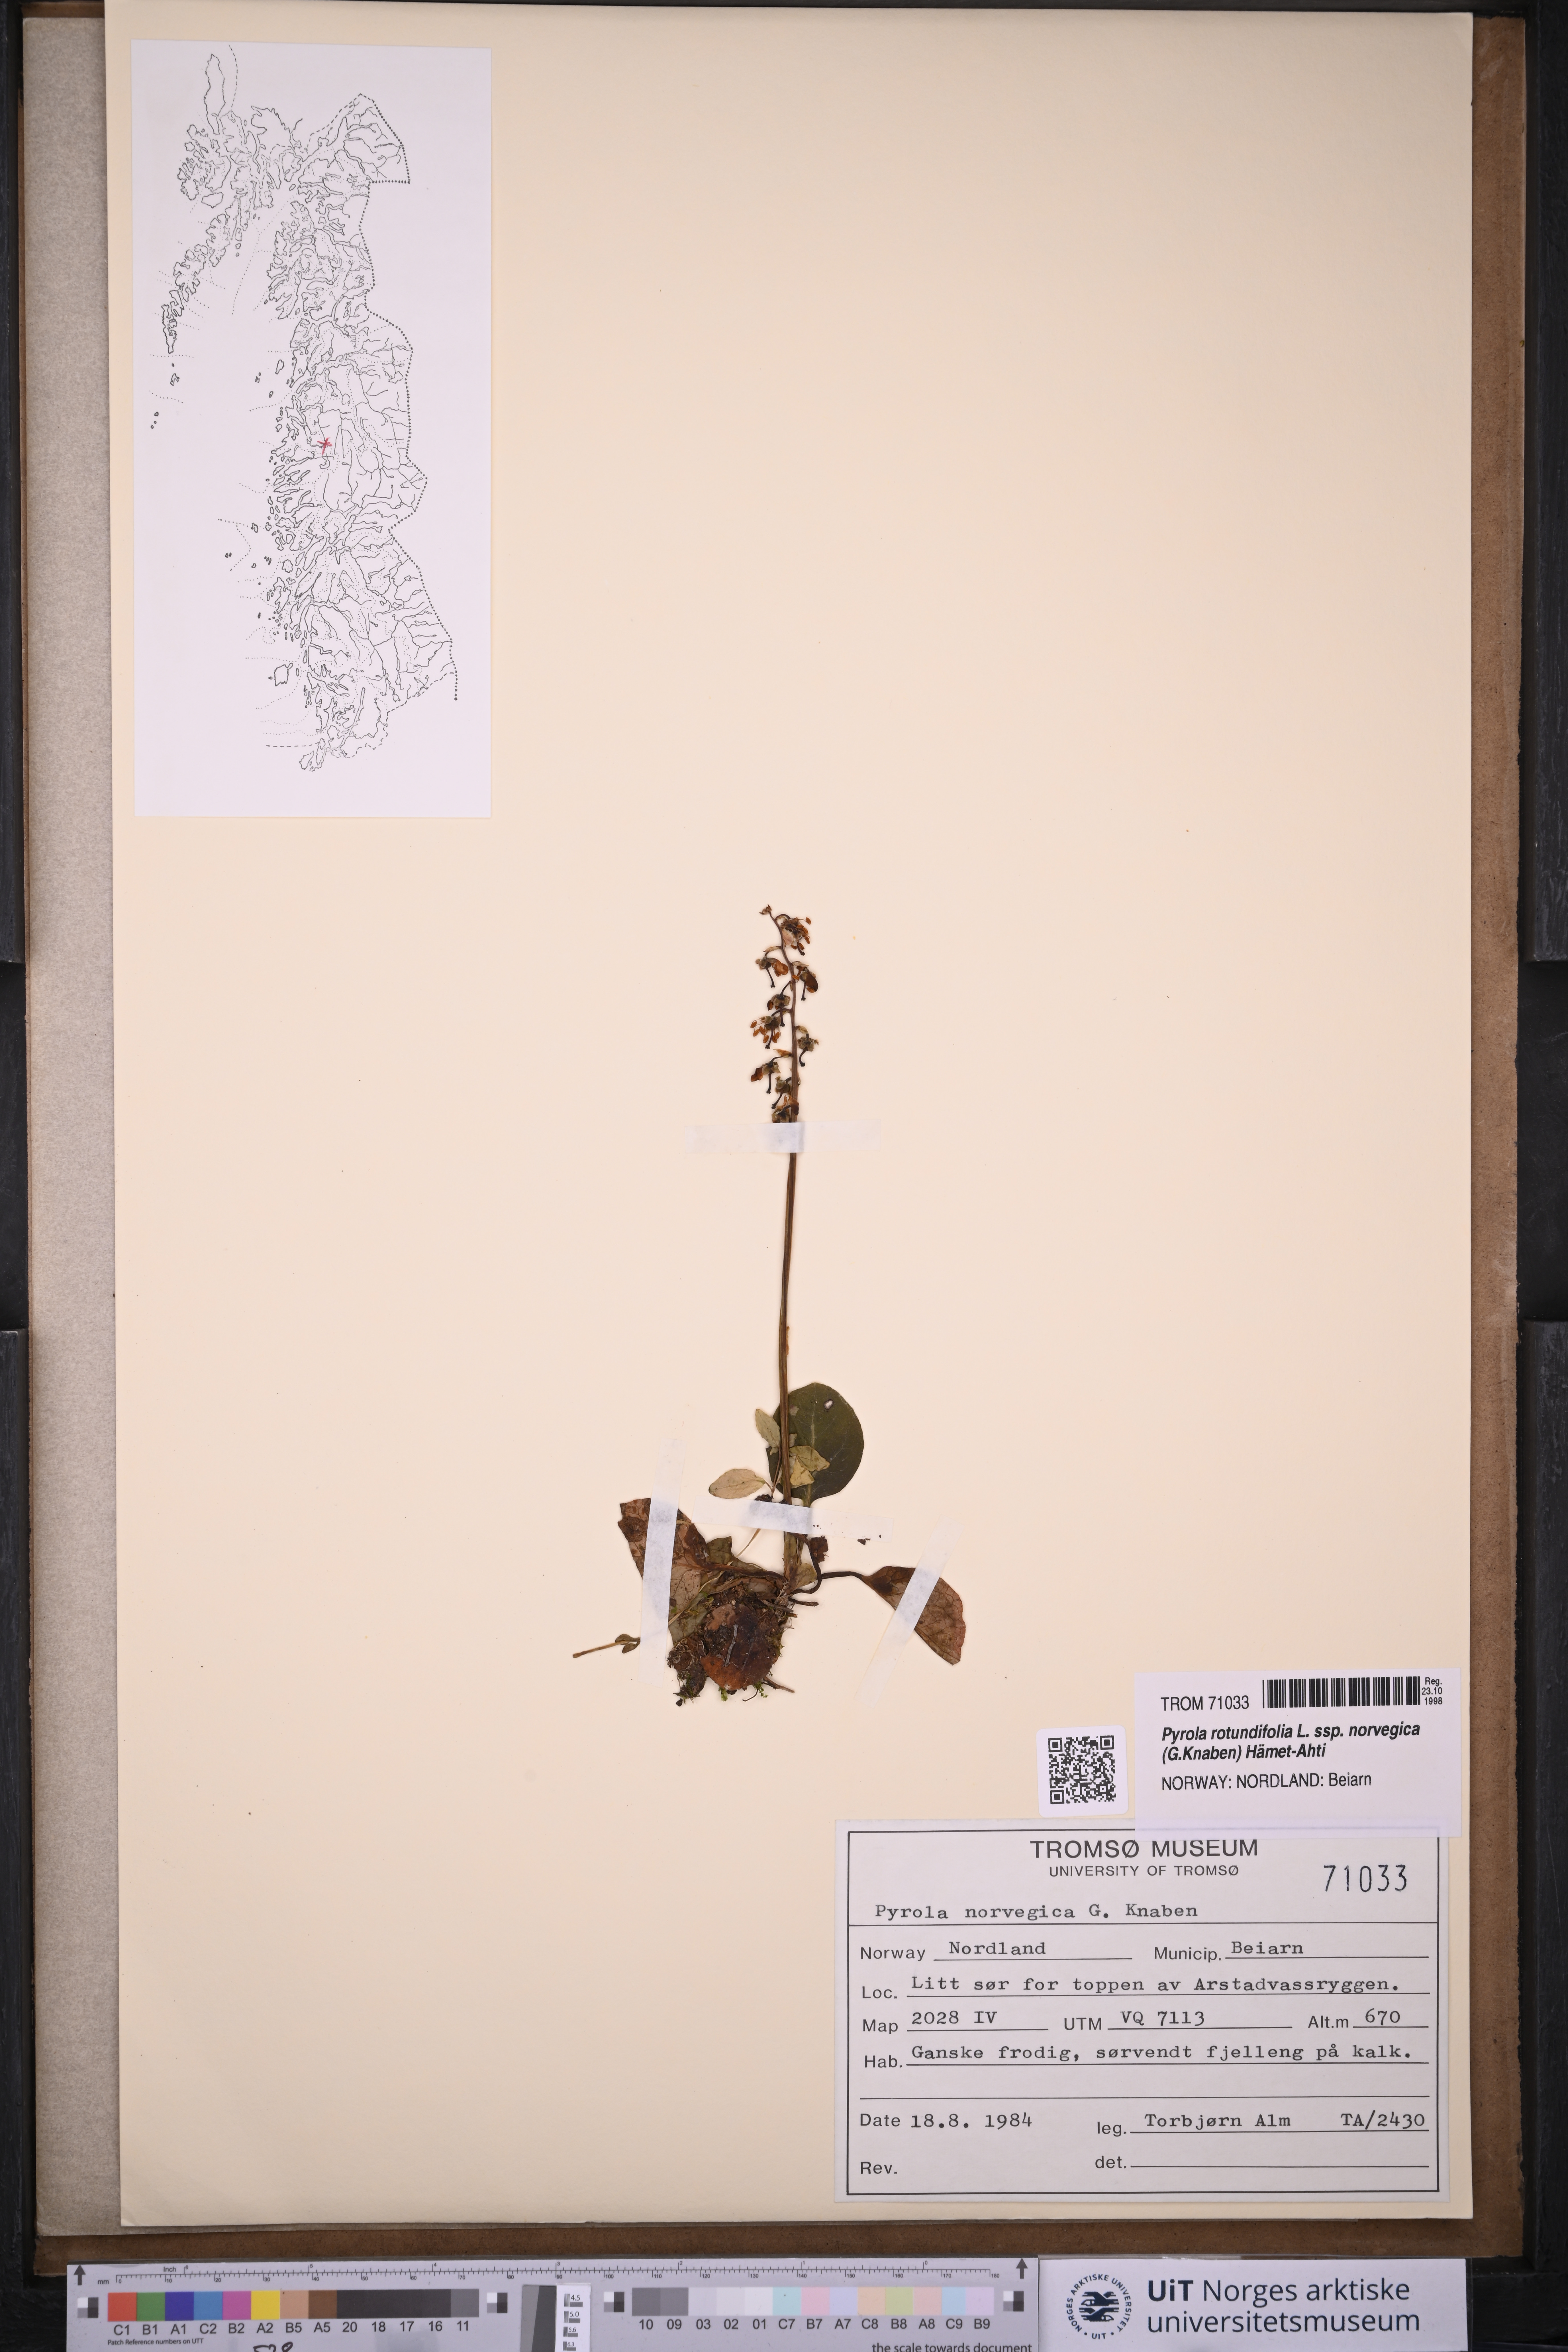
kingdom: Plantae
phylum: Tracheophyta
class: Magnoliopsida
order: Ericales
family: Ericaceae
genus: Pyrola
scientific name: Pyrola rotundifolia
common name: Round-leaved wintergreen
